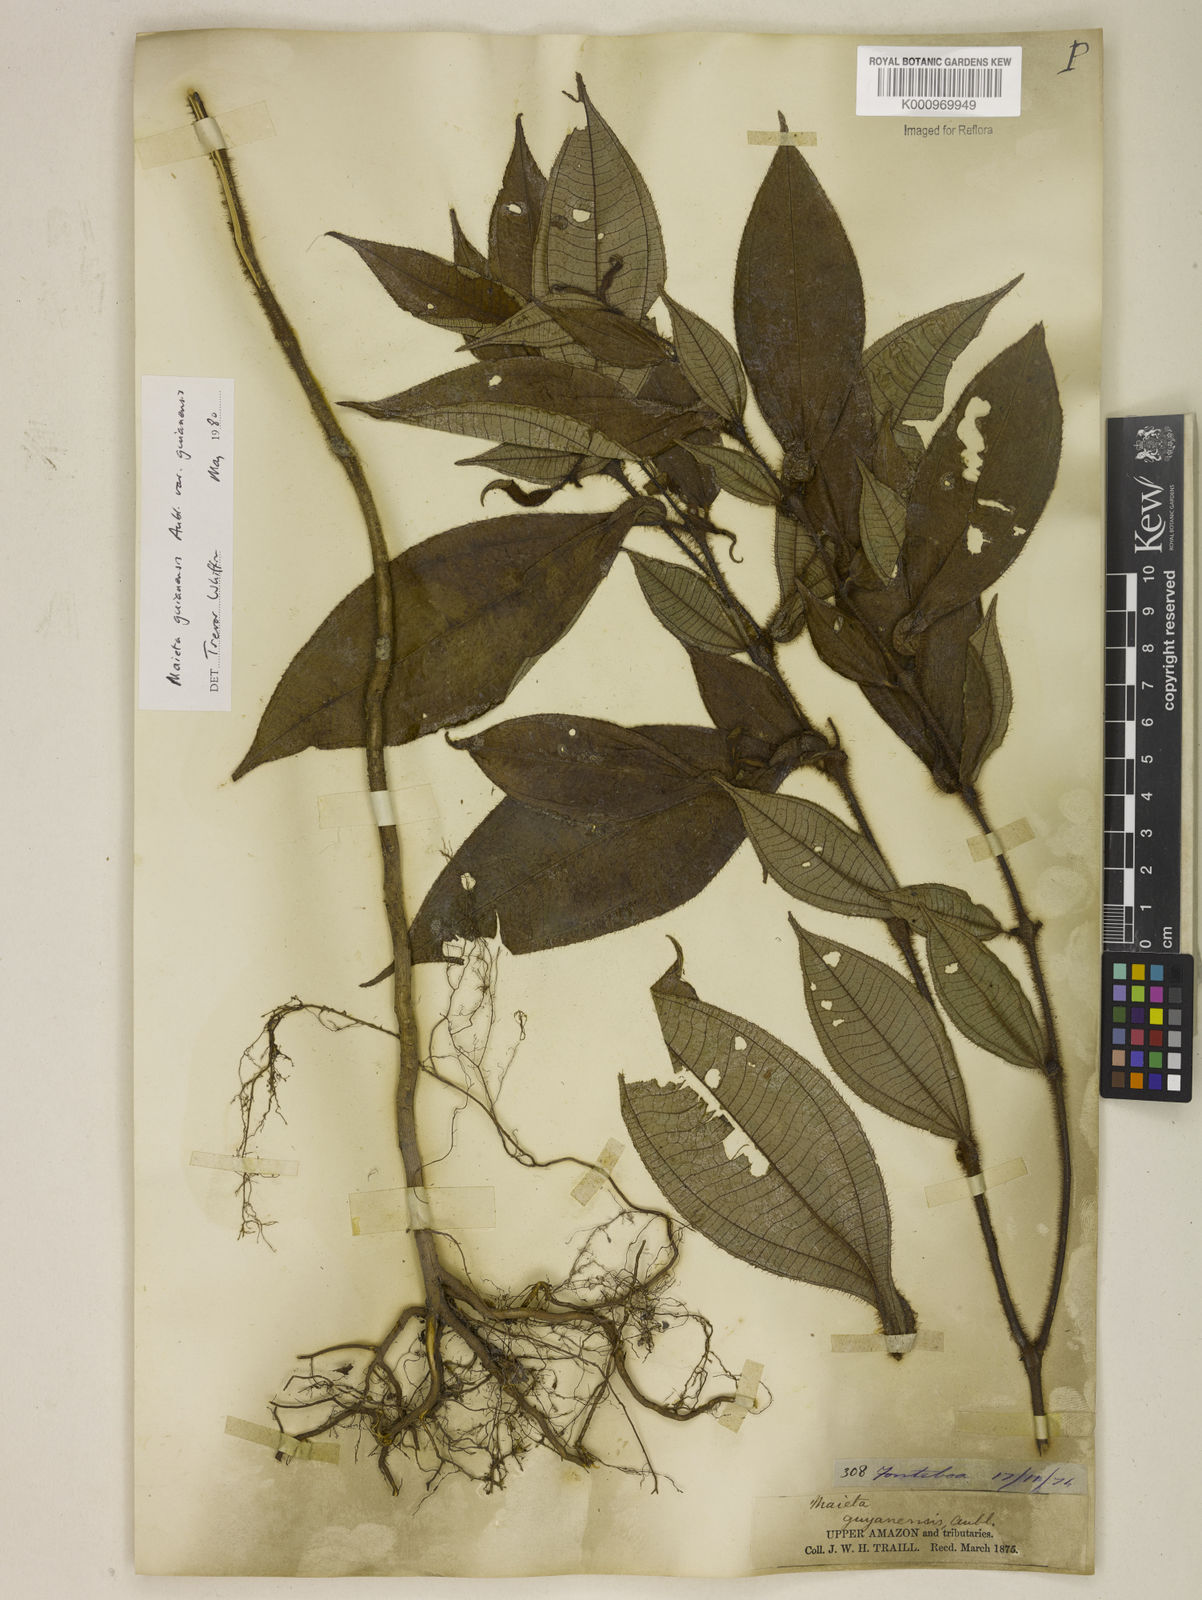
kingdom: Plantae
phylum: Tracheophyta
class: Magnoliopsida
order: Myrtales
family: Melastomataceae
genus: Miconia
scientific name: Miconia mayeta
